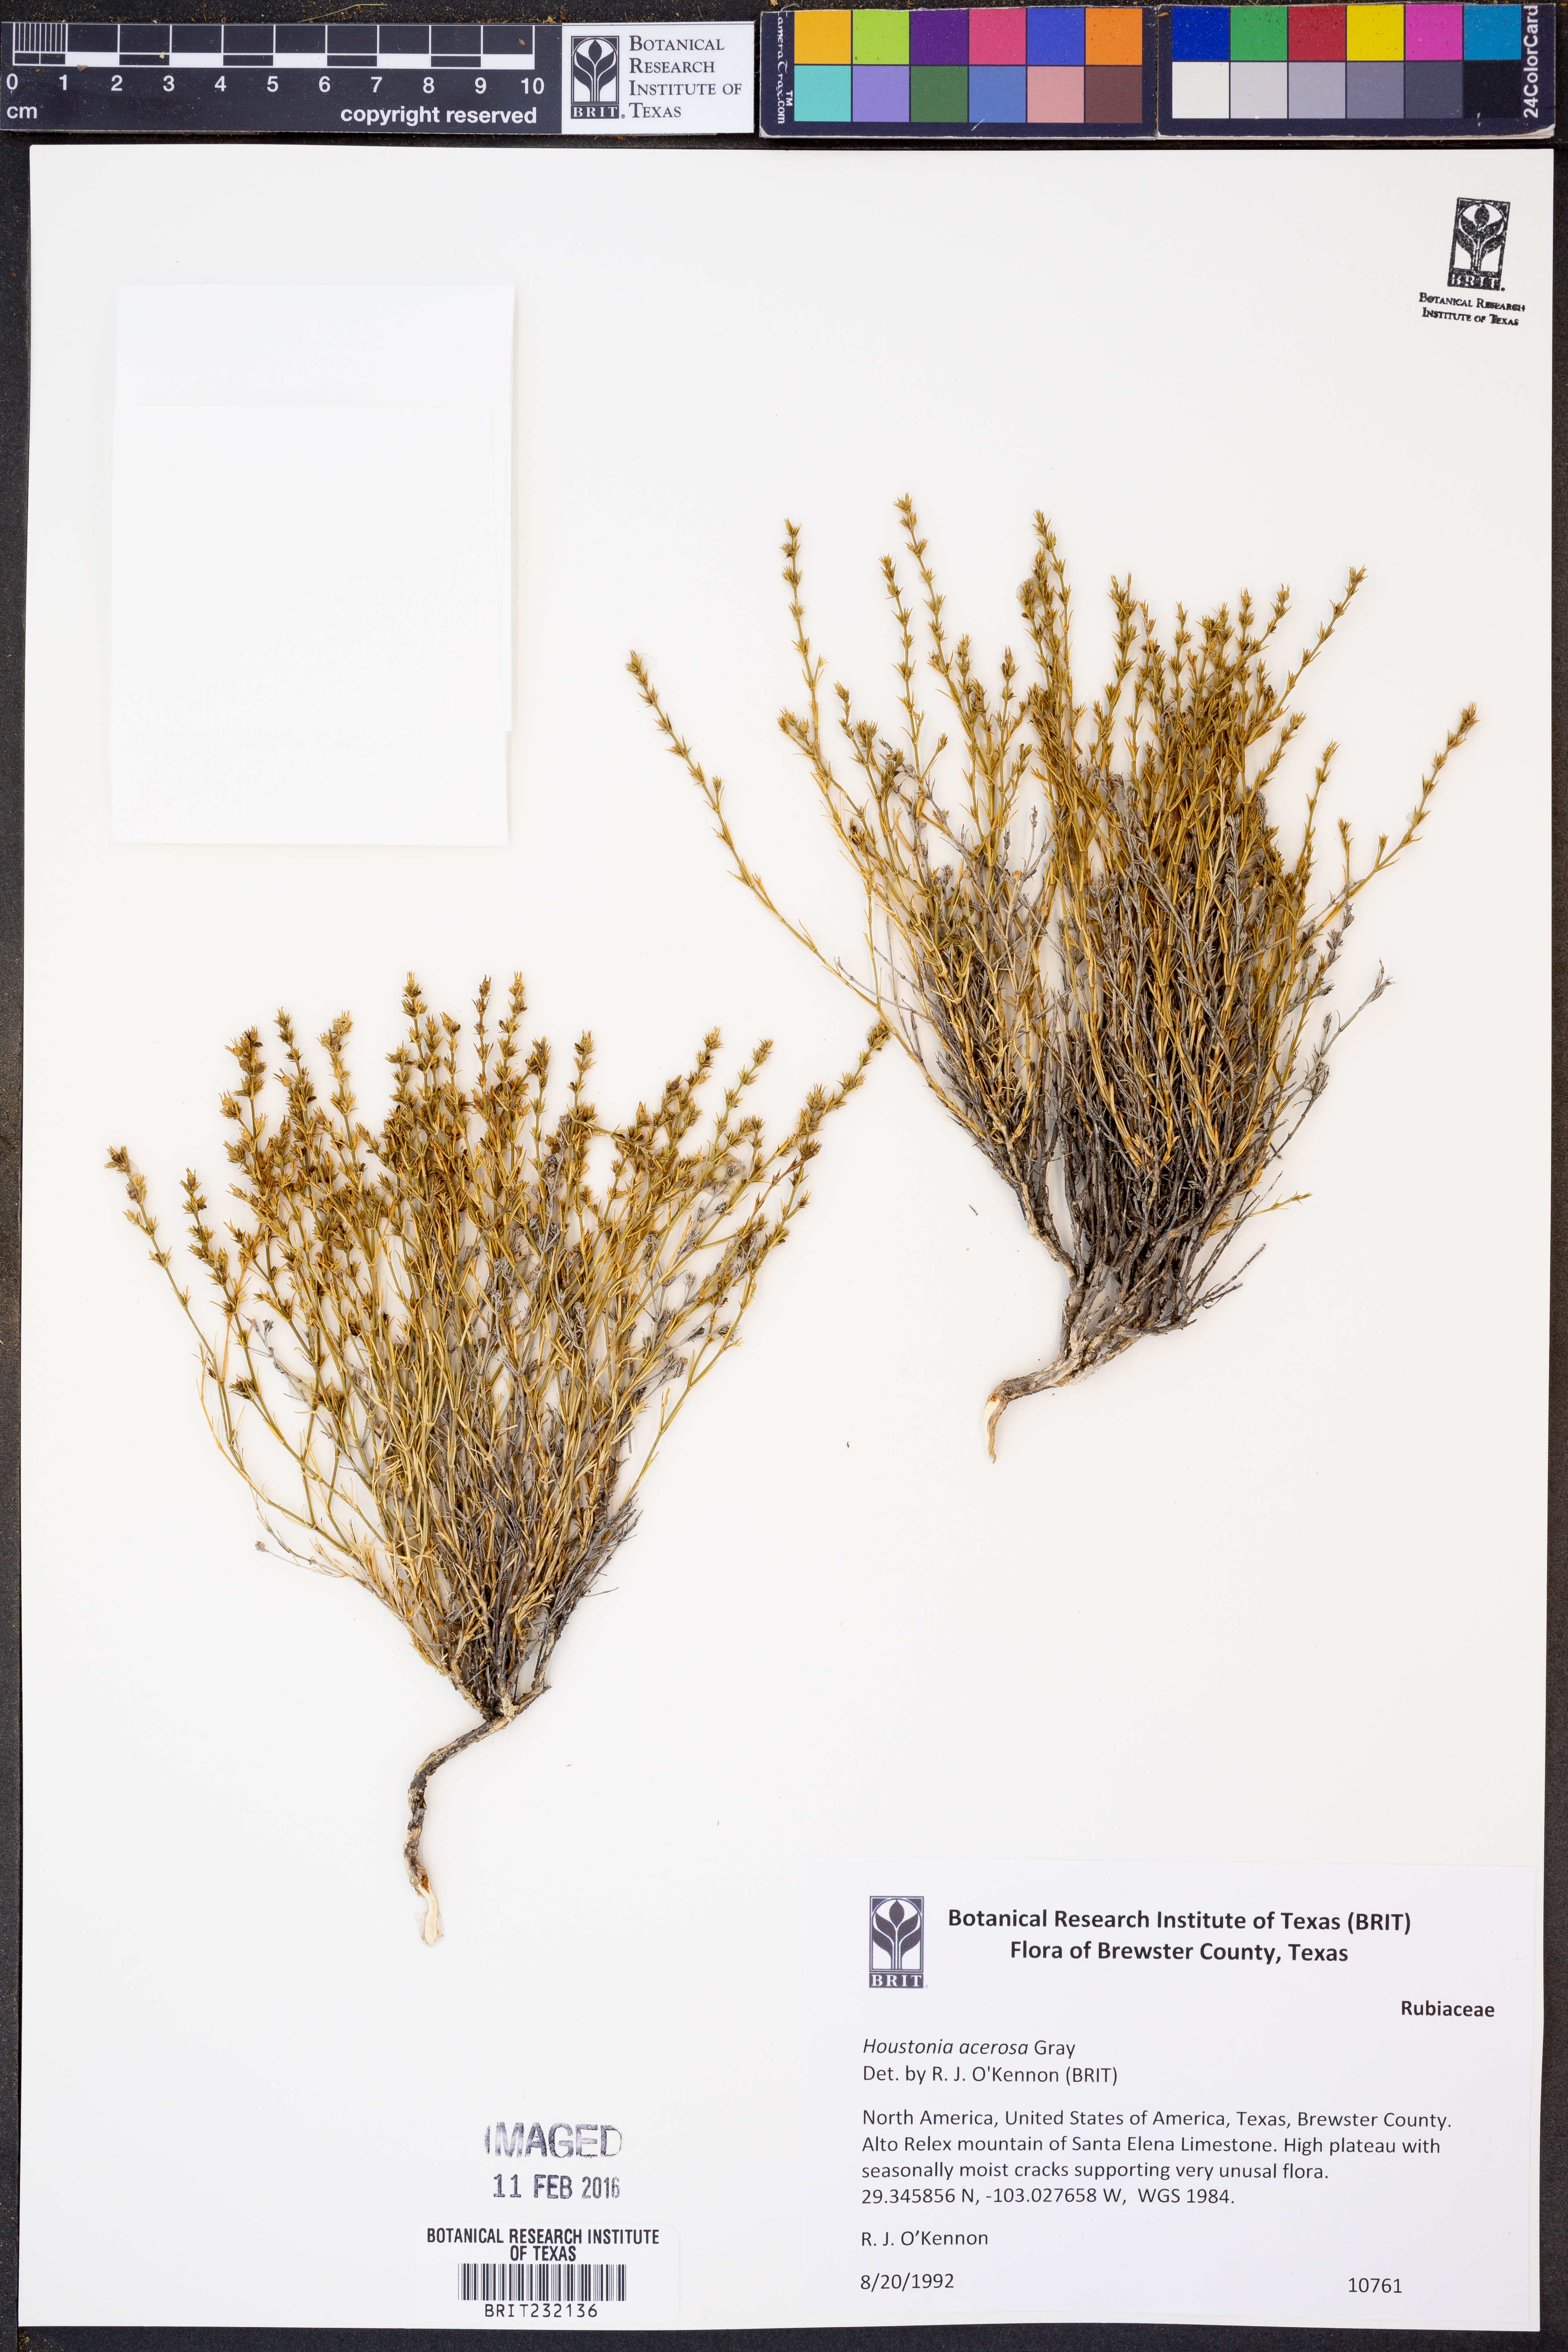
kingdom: Plantae
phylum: Tracheophyta
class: Magnoliopsida
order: Gentianales
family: Rubiaceae
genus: Houstonia
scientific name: Houstonia acerosa
